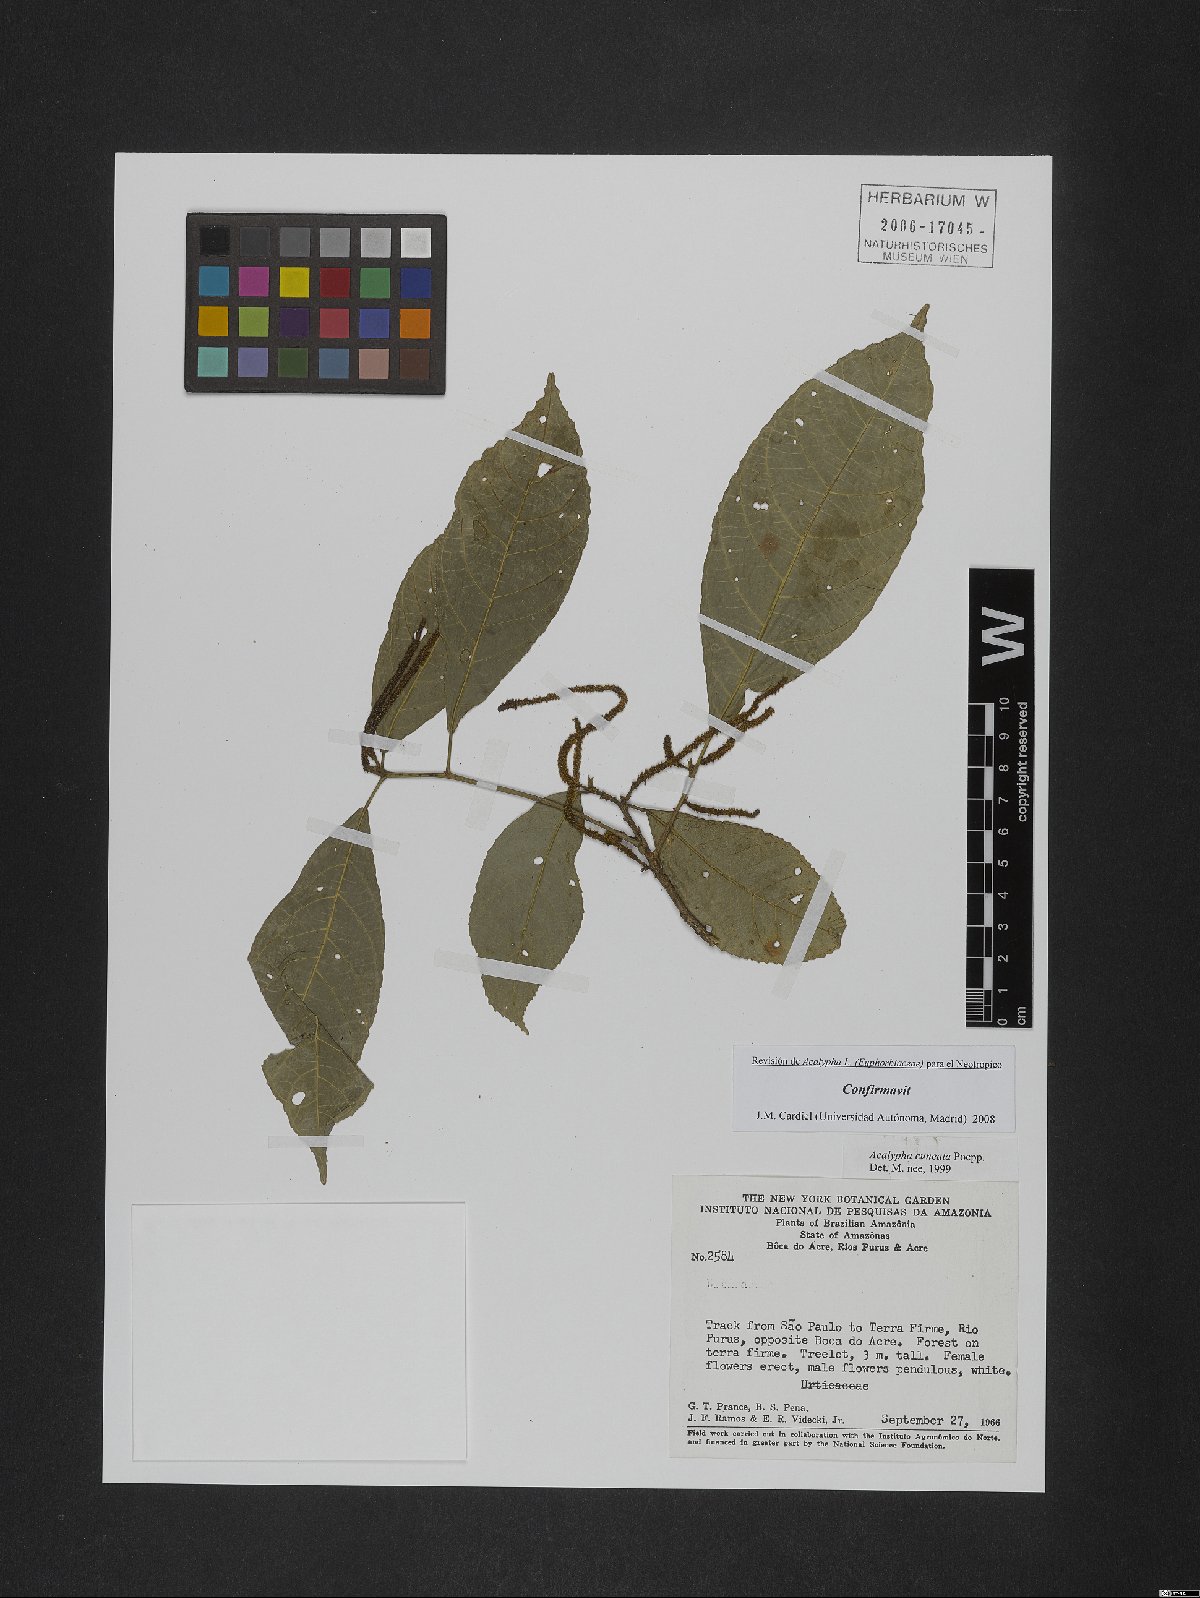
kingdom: Plantae
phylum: Tracheophyta
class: Magnoliopsida
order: Malpighiales
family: Euphorbiaceae
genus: Acalypha
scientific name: Acalypha cuneata
